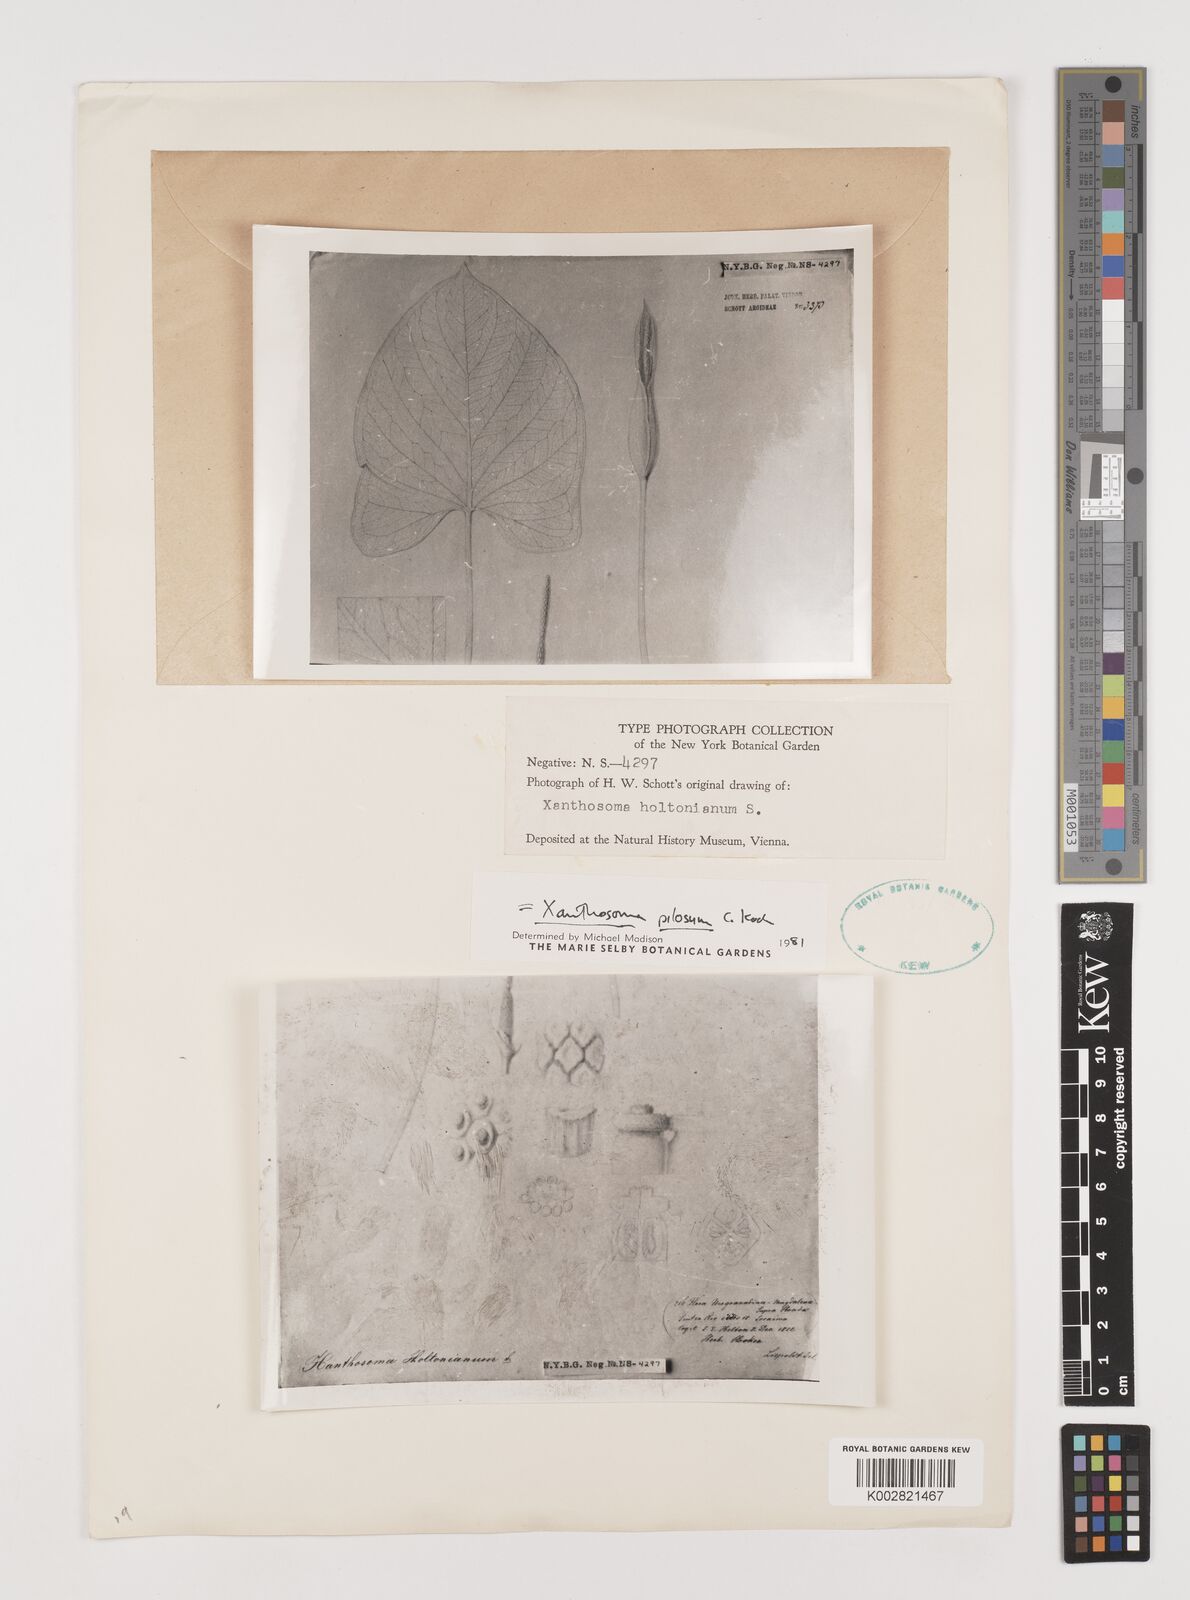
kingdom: Plantae
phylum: Tracheophyta
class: Liliopsida
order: Alismatales
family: Araceae
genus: Xanthosoma
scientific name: Xanthosoma mexicanum
